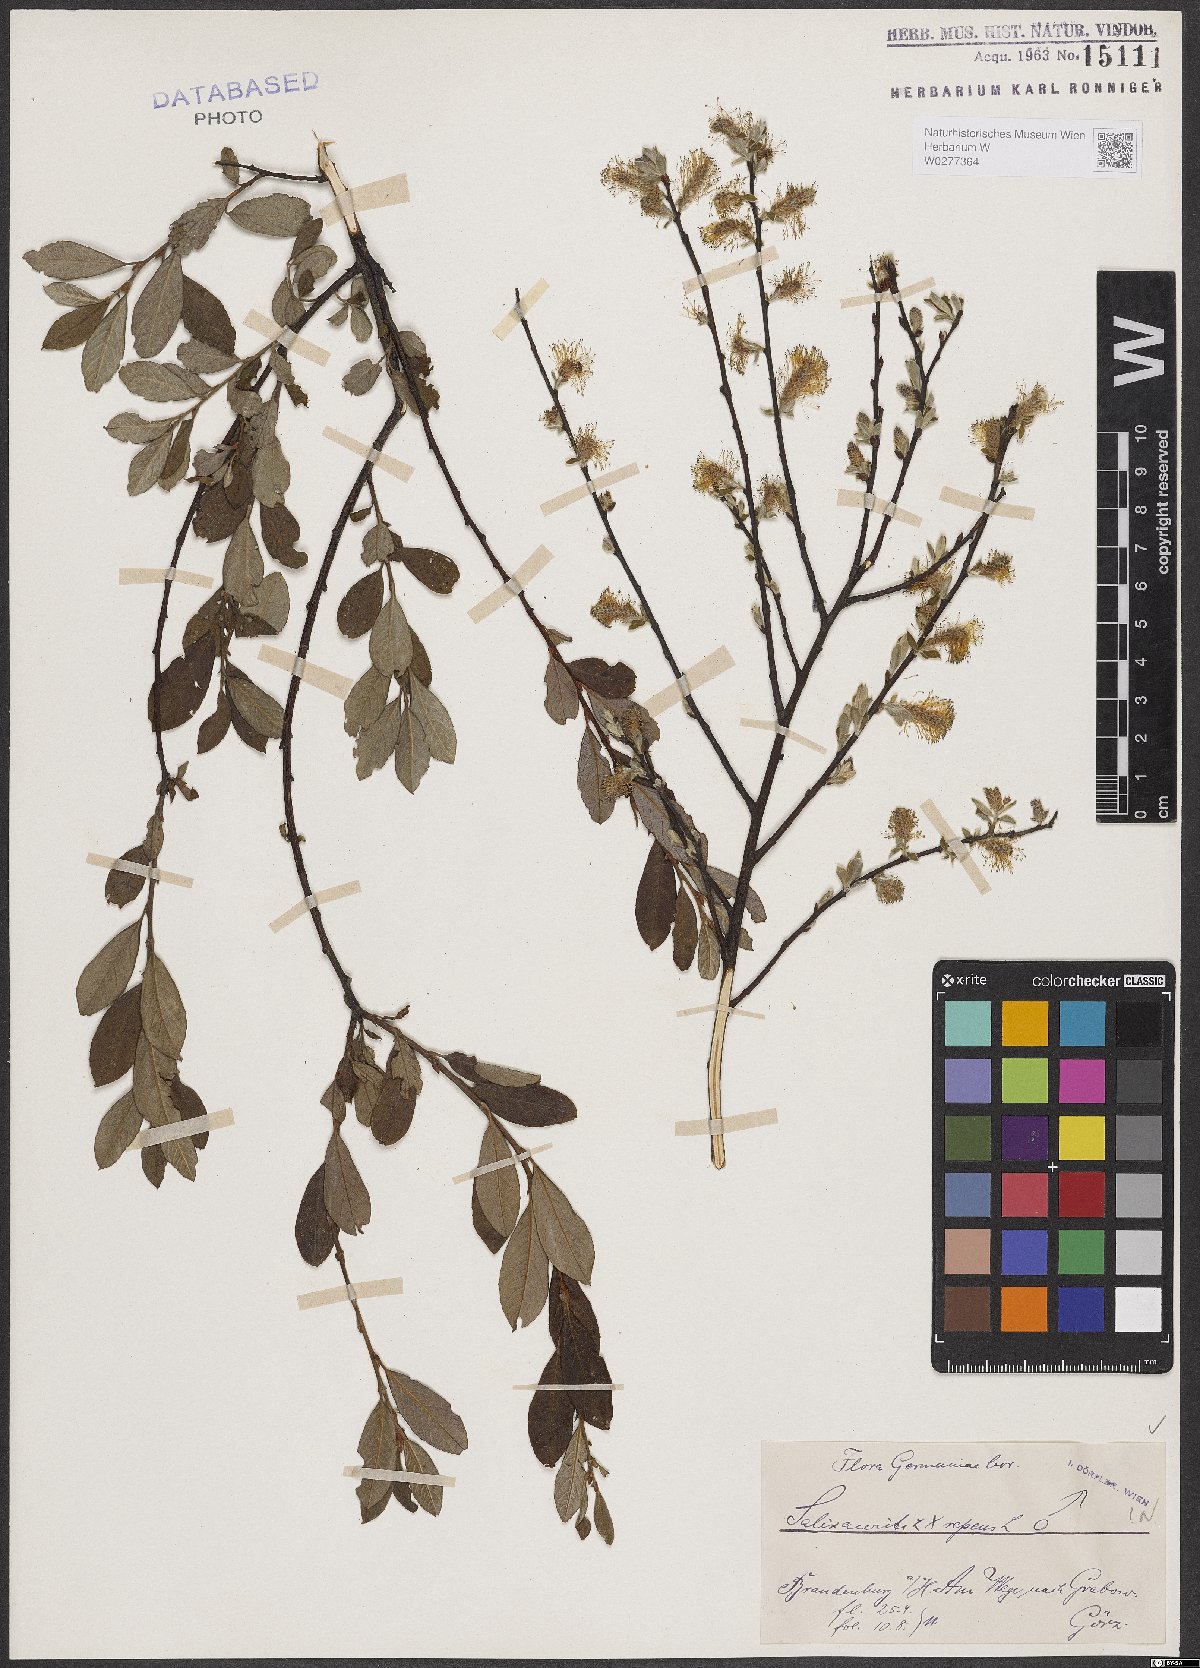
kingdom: Plantae
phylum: Tracheophyta
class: Magnoliopsida
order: Malpighiales
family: Salicaceae
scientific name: Salicaceae
